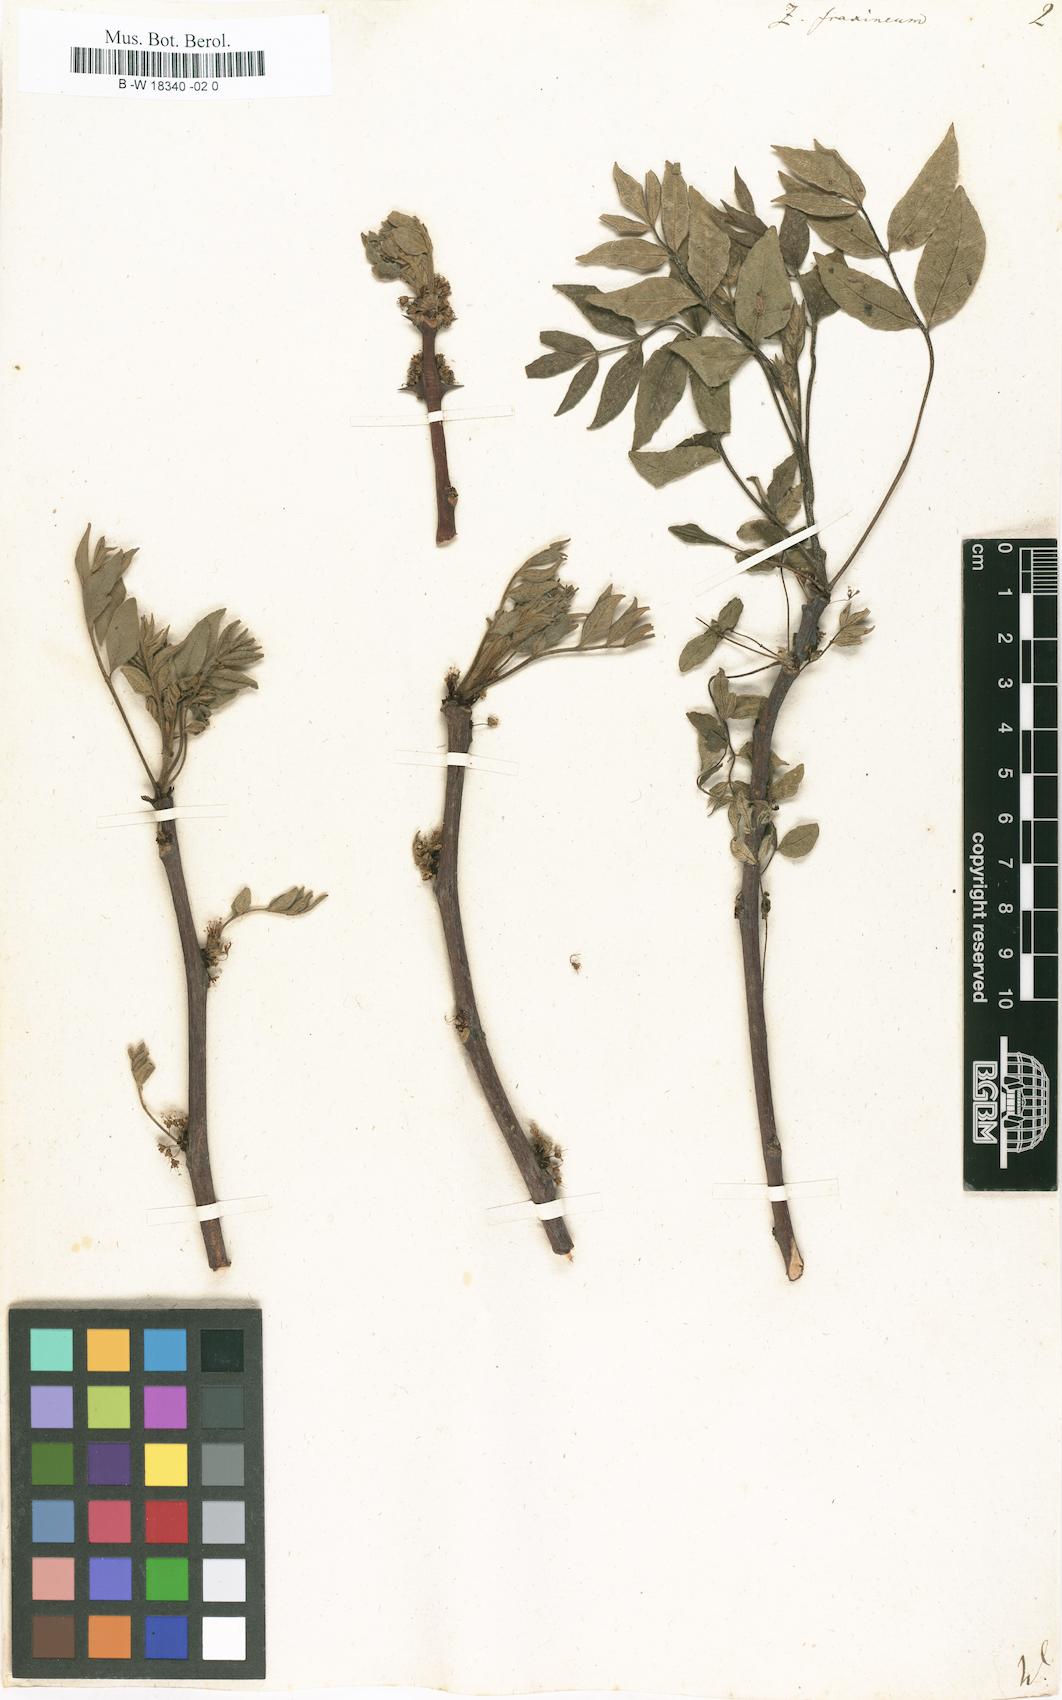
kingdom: Plantae
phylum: Tracheophyta
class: Magnoliopsida
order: Sapindales
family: Rutaceae
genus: Zanthoxylum
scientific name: Zanthoxylum americanum
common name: Northern prickly-ash
